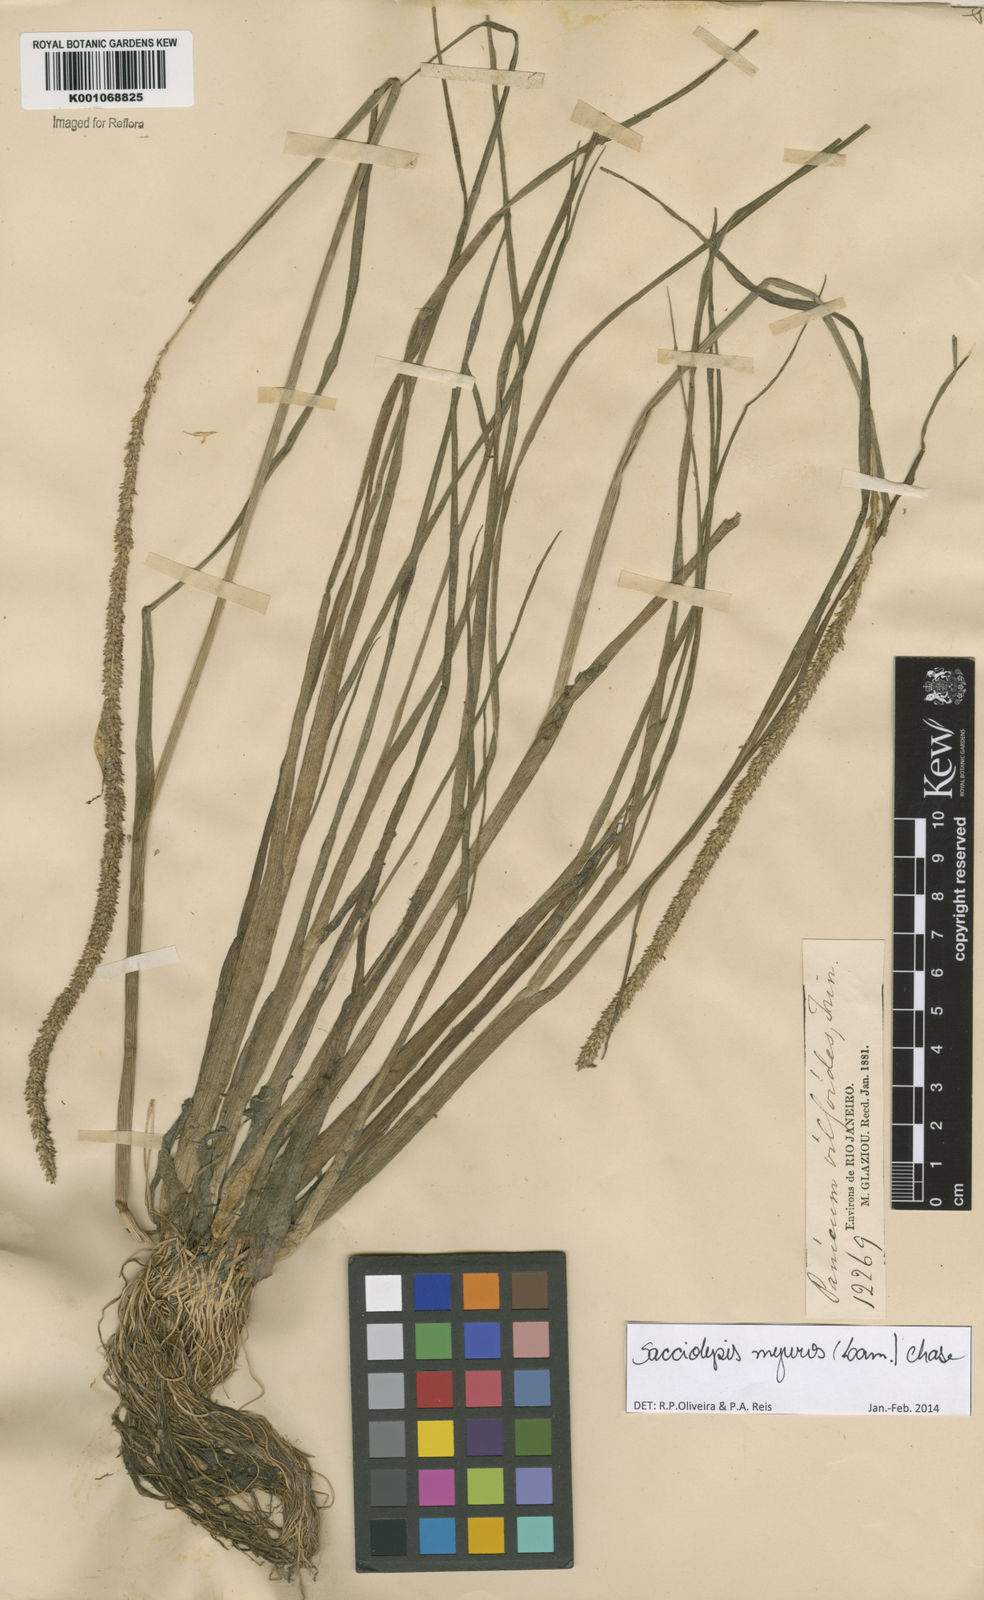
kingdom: Plantae
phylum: Tracheophyta
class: Liliopsida
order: Poales
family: Poaceae
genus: Sacciolepis
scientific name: Sacciolepis myuros
